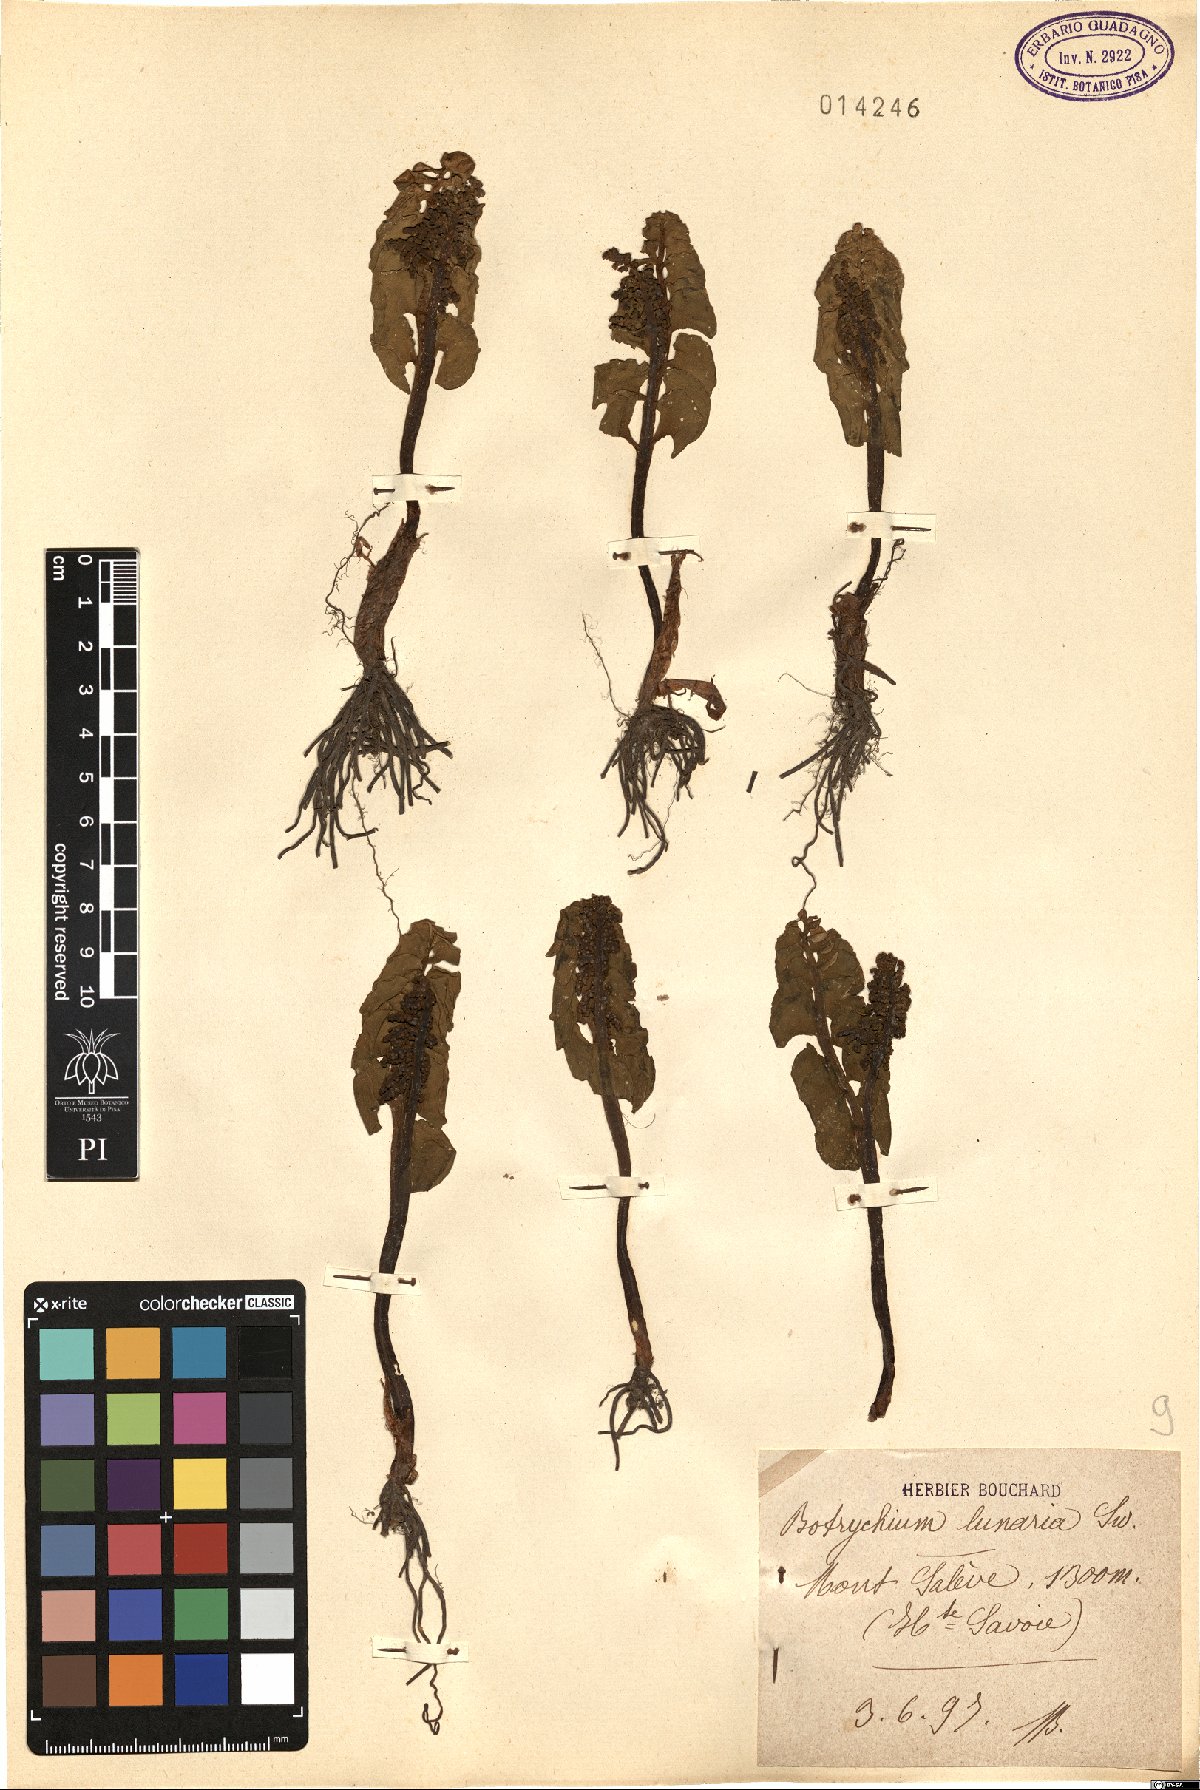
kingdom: Plantae
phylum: Tracheophyta
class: Polypodiopsida
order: Ophioglossales
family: Ophioglossaceae
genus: Botrychium
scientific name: Botrychium lunaria
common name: Moonwort
